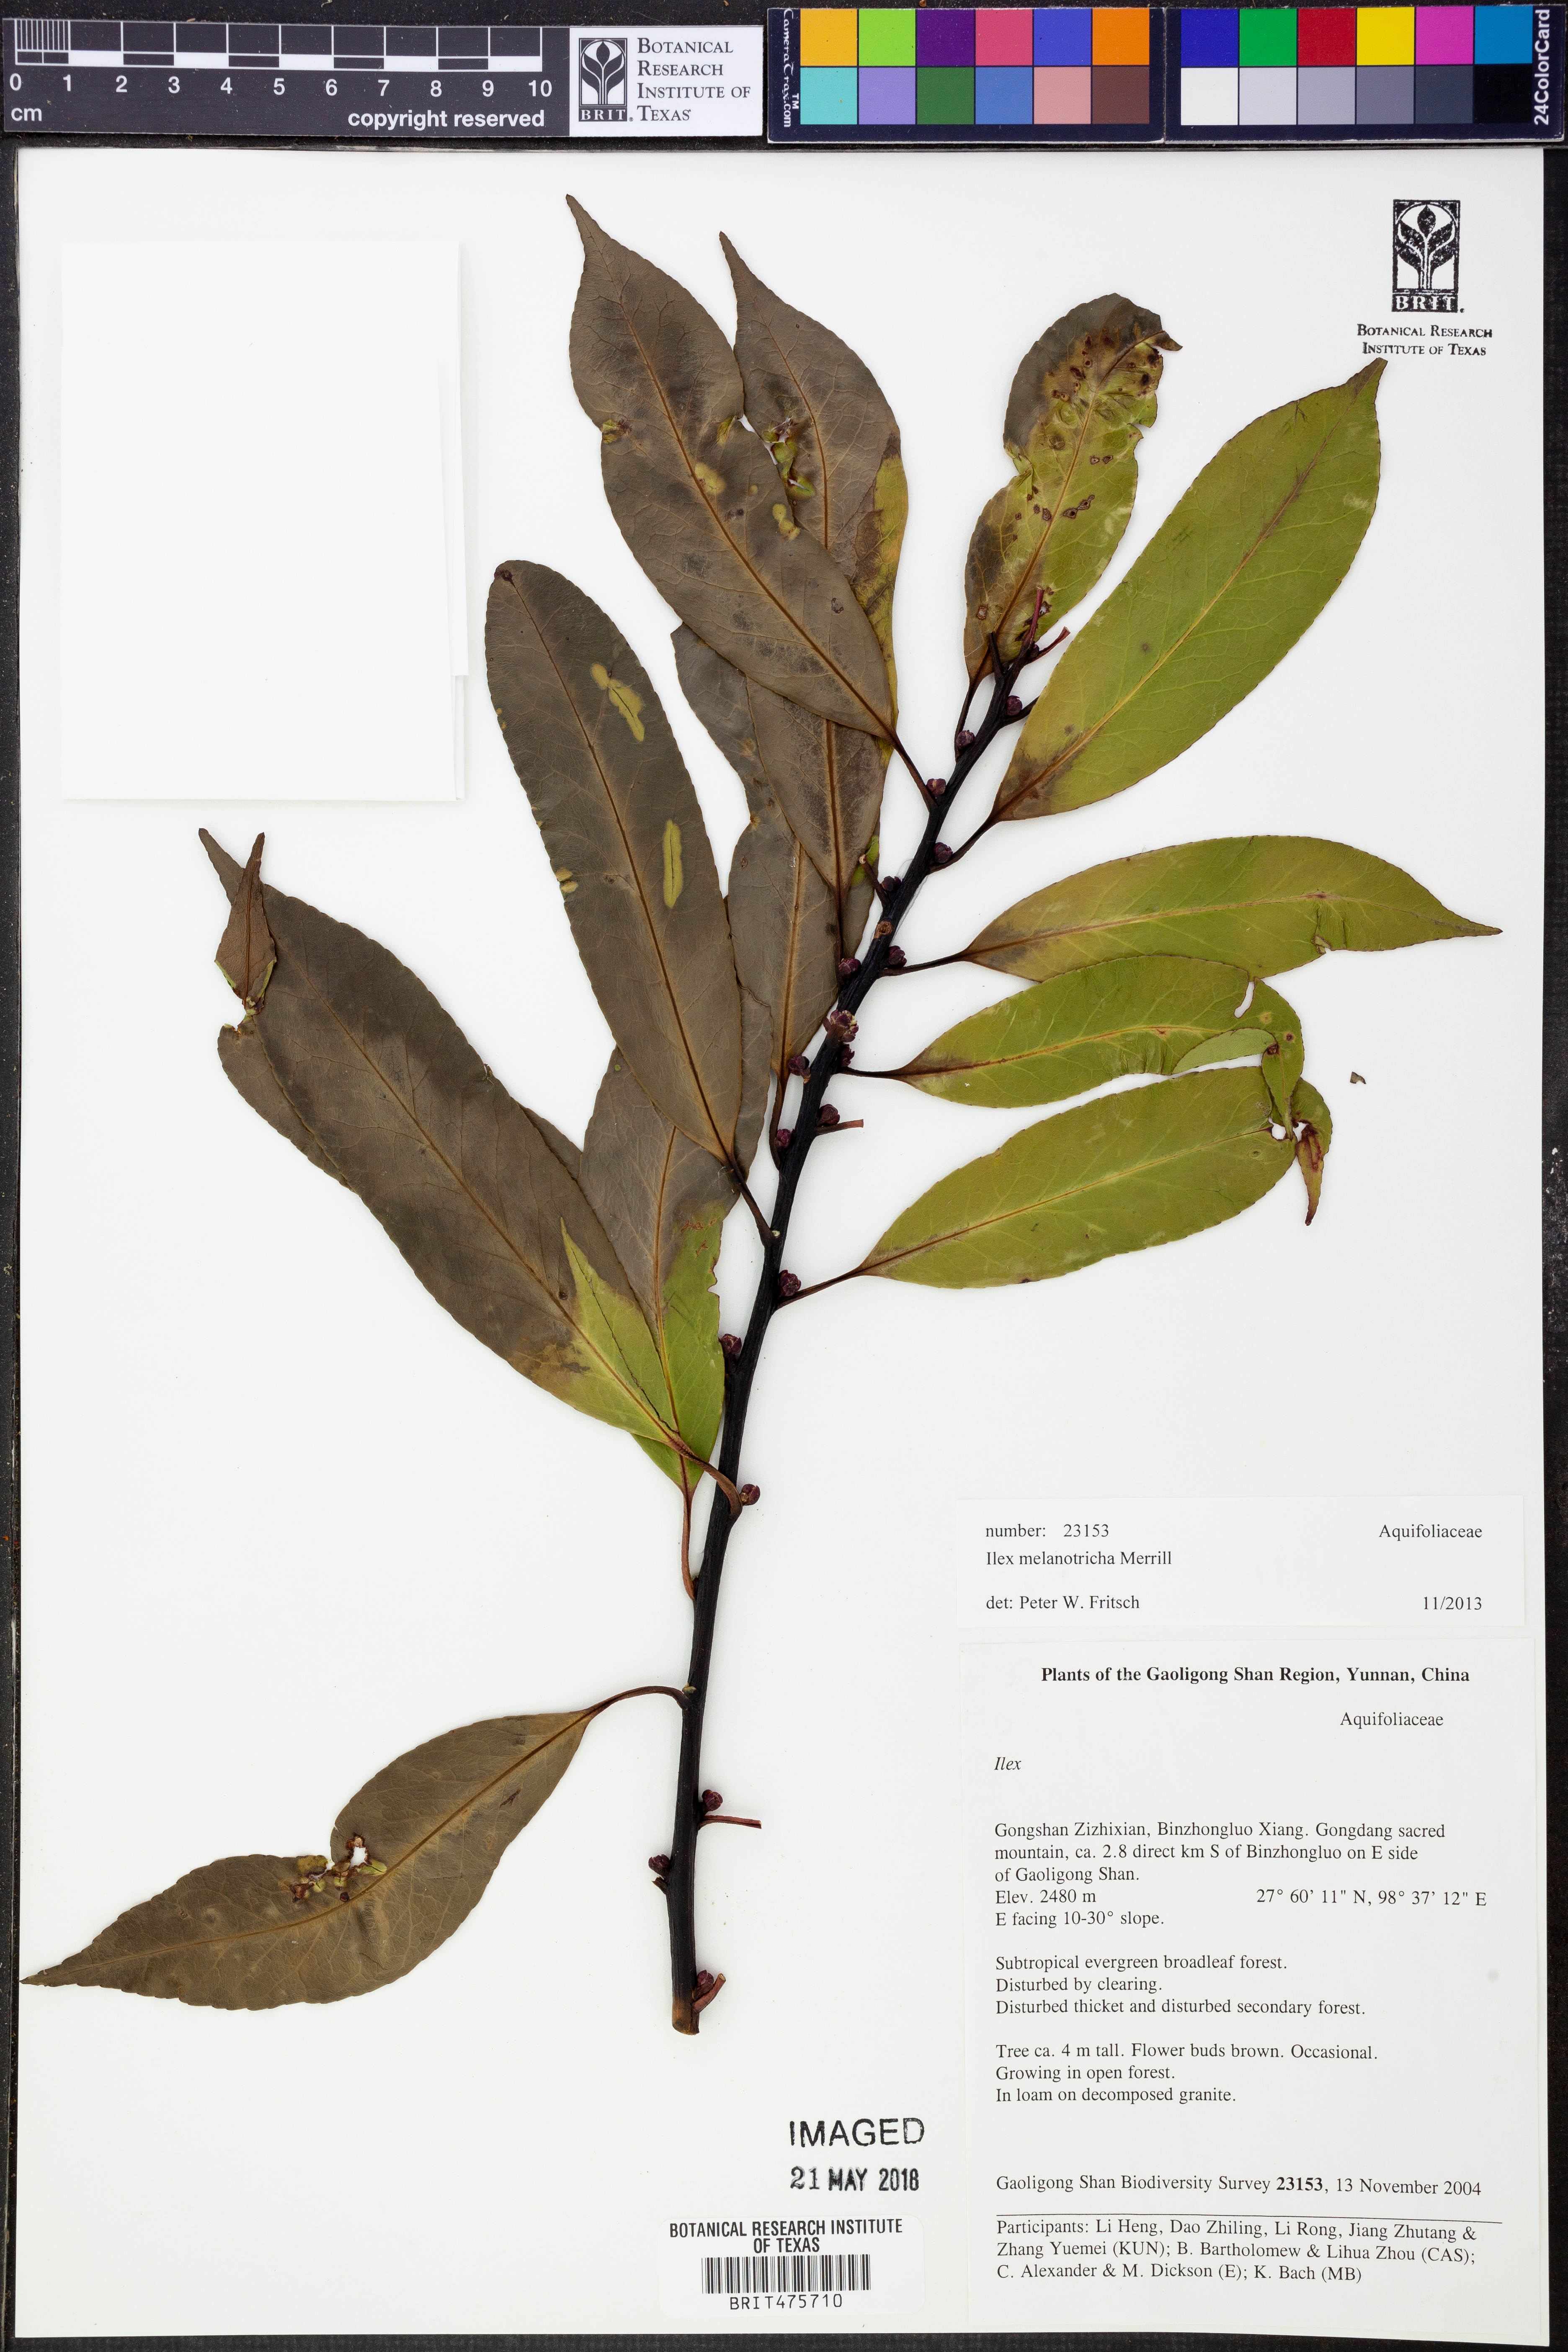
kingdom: Plantae
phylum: Tracheophyta
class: Magnoliopsida
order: Aquifoliales
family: Aquifoliaceae
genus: Ilex
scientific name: Ilex fargesii
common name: Farges’s holly
